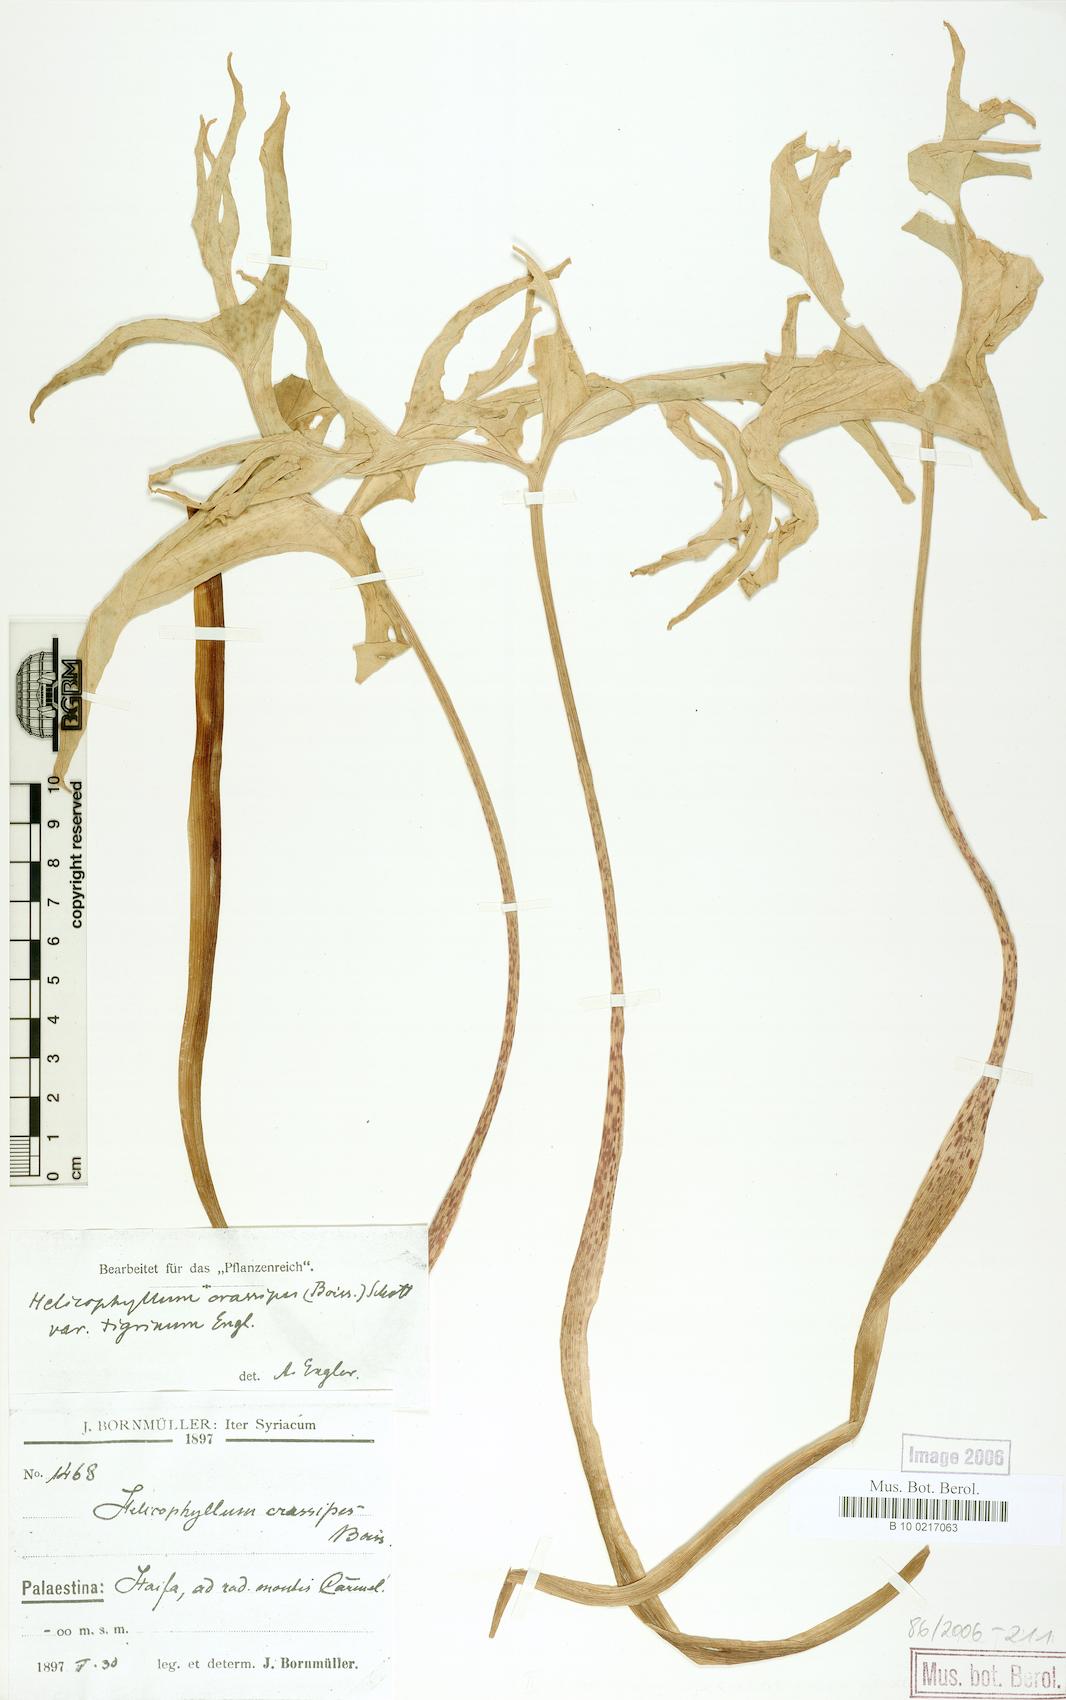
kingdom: Plantae
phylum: Tracheophyta
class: Liliopsida
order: Alismatales
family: Araceae
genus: Eminium
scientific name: Eminium spiculatum
